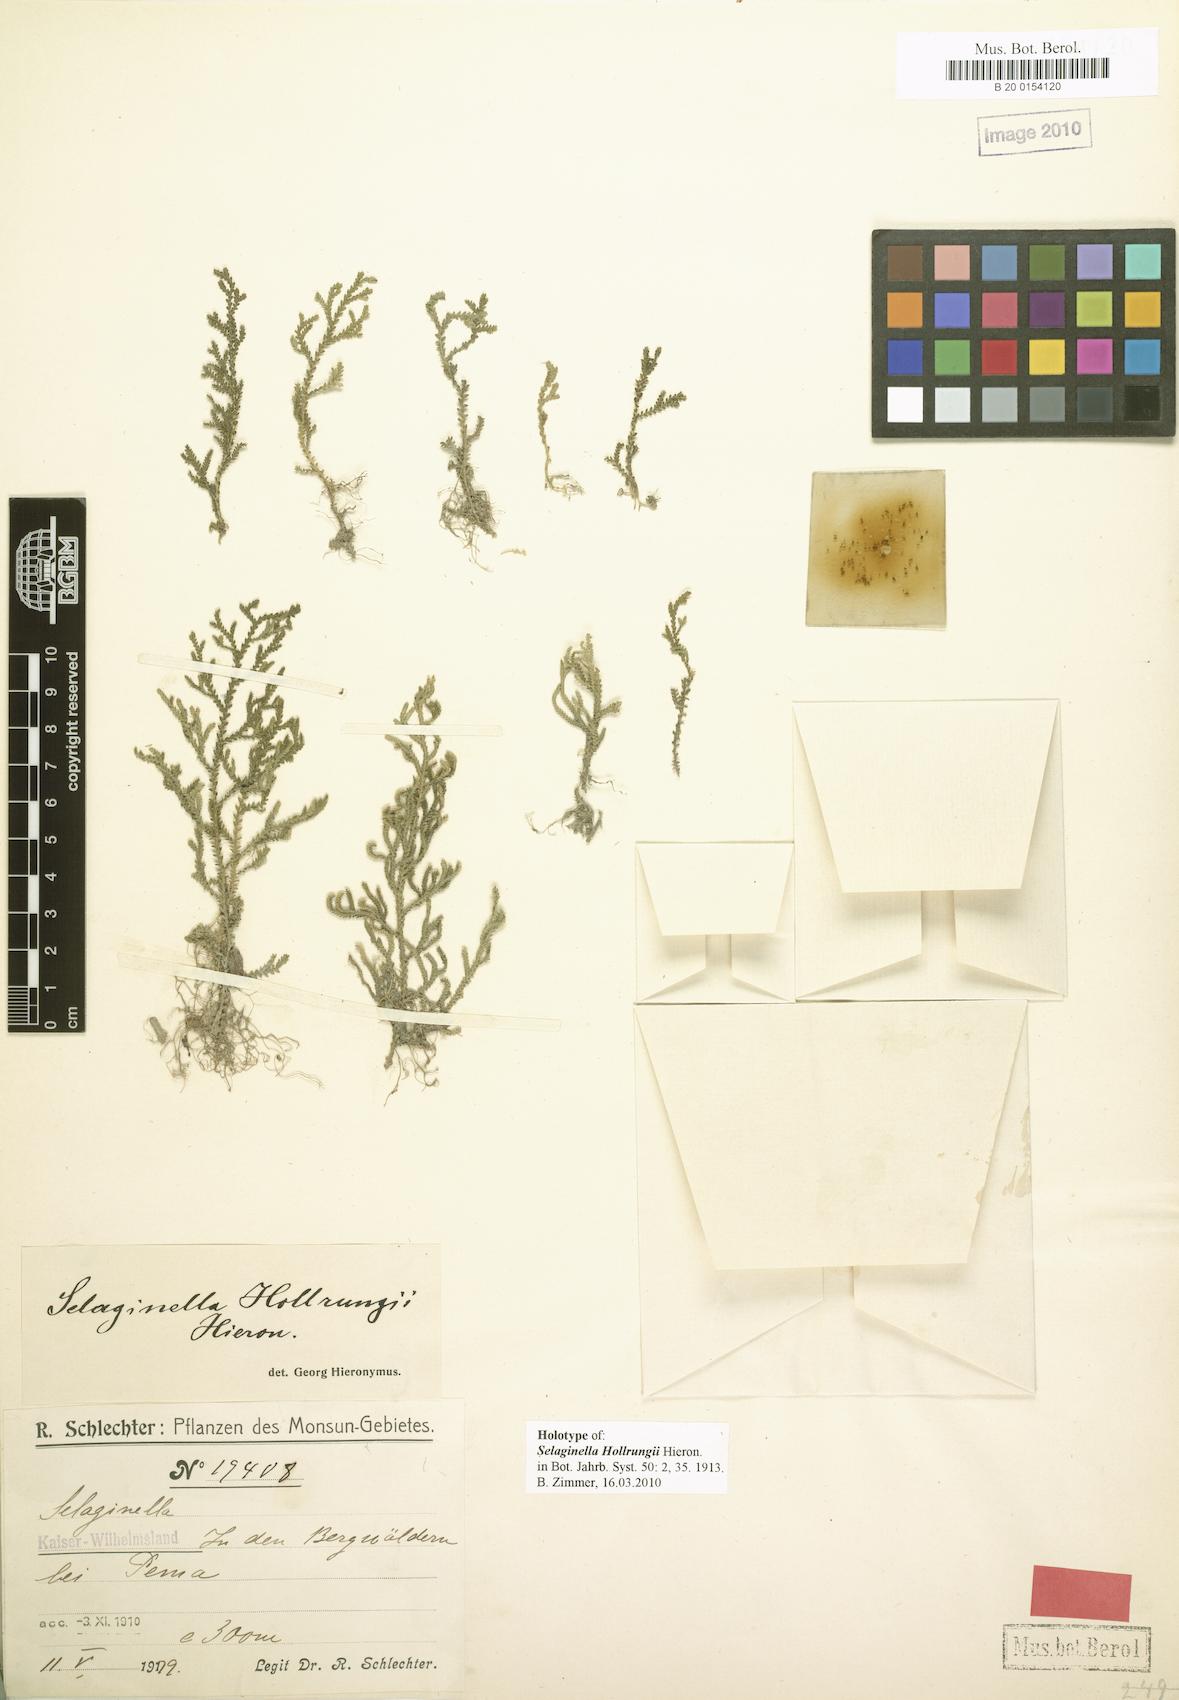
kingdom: Plantae
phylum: Tracheophyta
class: Lycopodiopsida
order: Selaginellales
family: Selaginellaceae
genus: Selaginella
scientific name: Selaginella hollrungii
